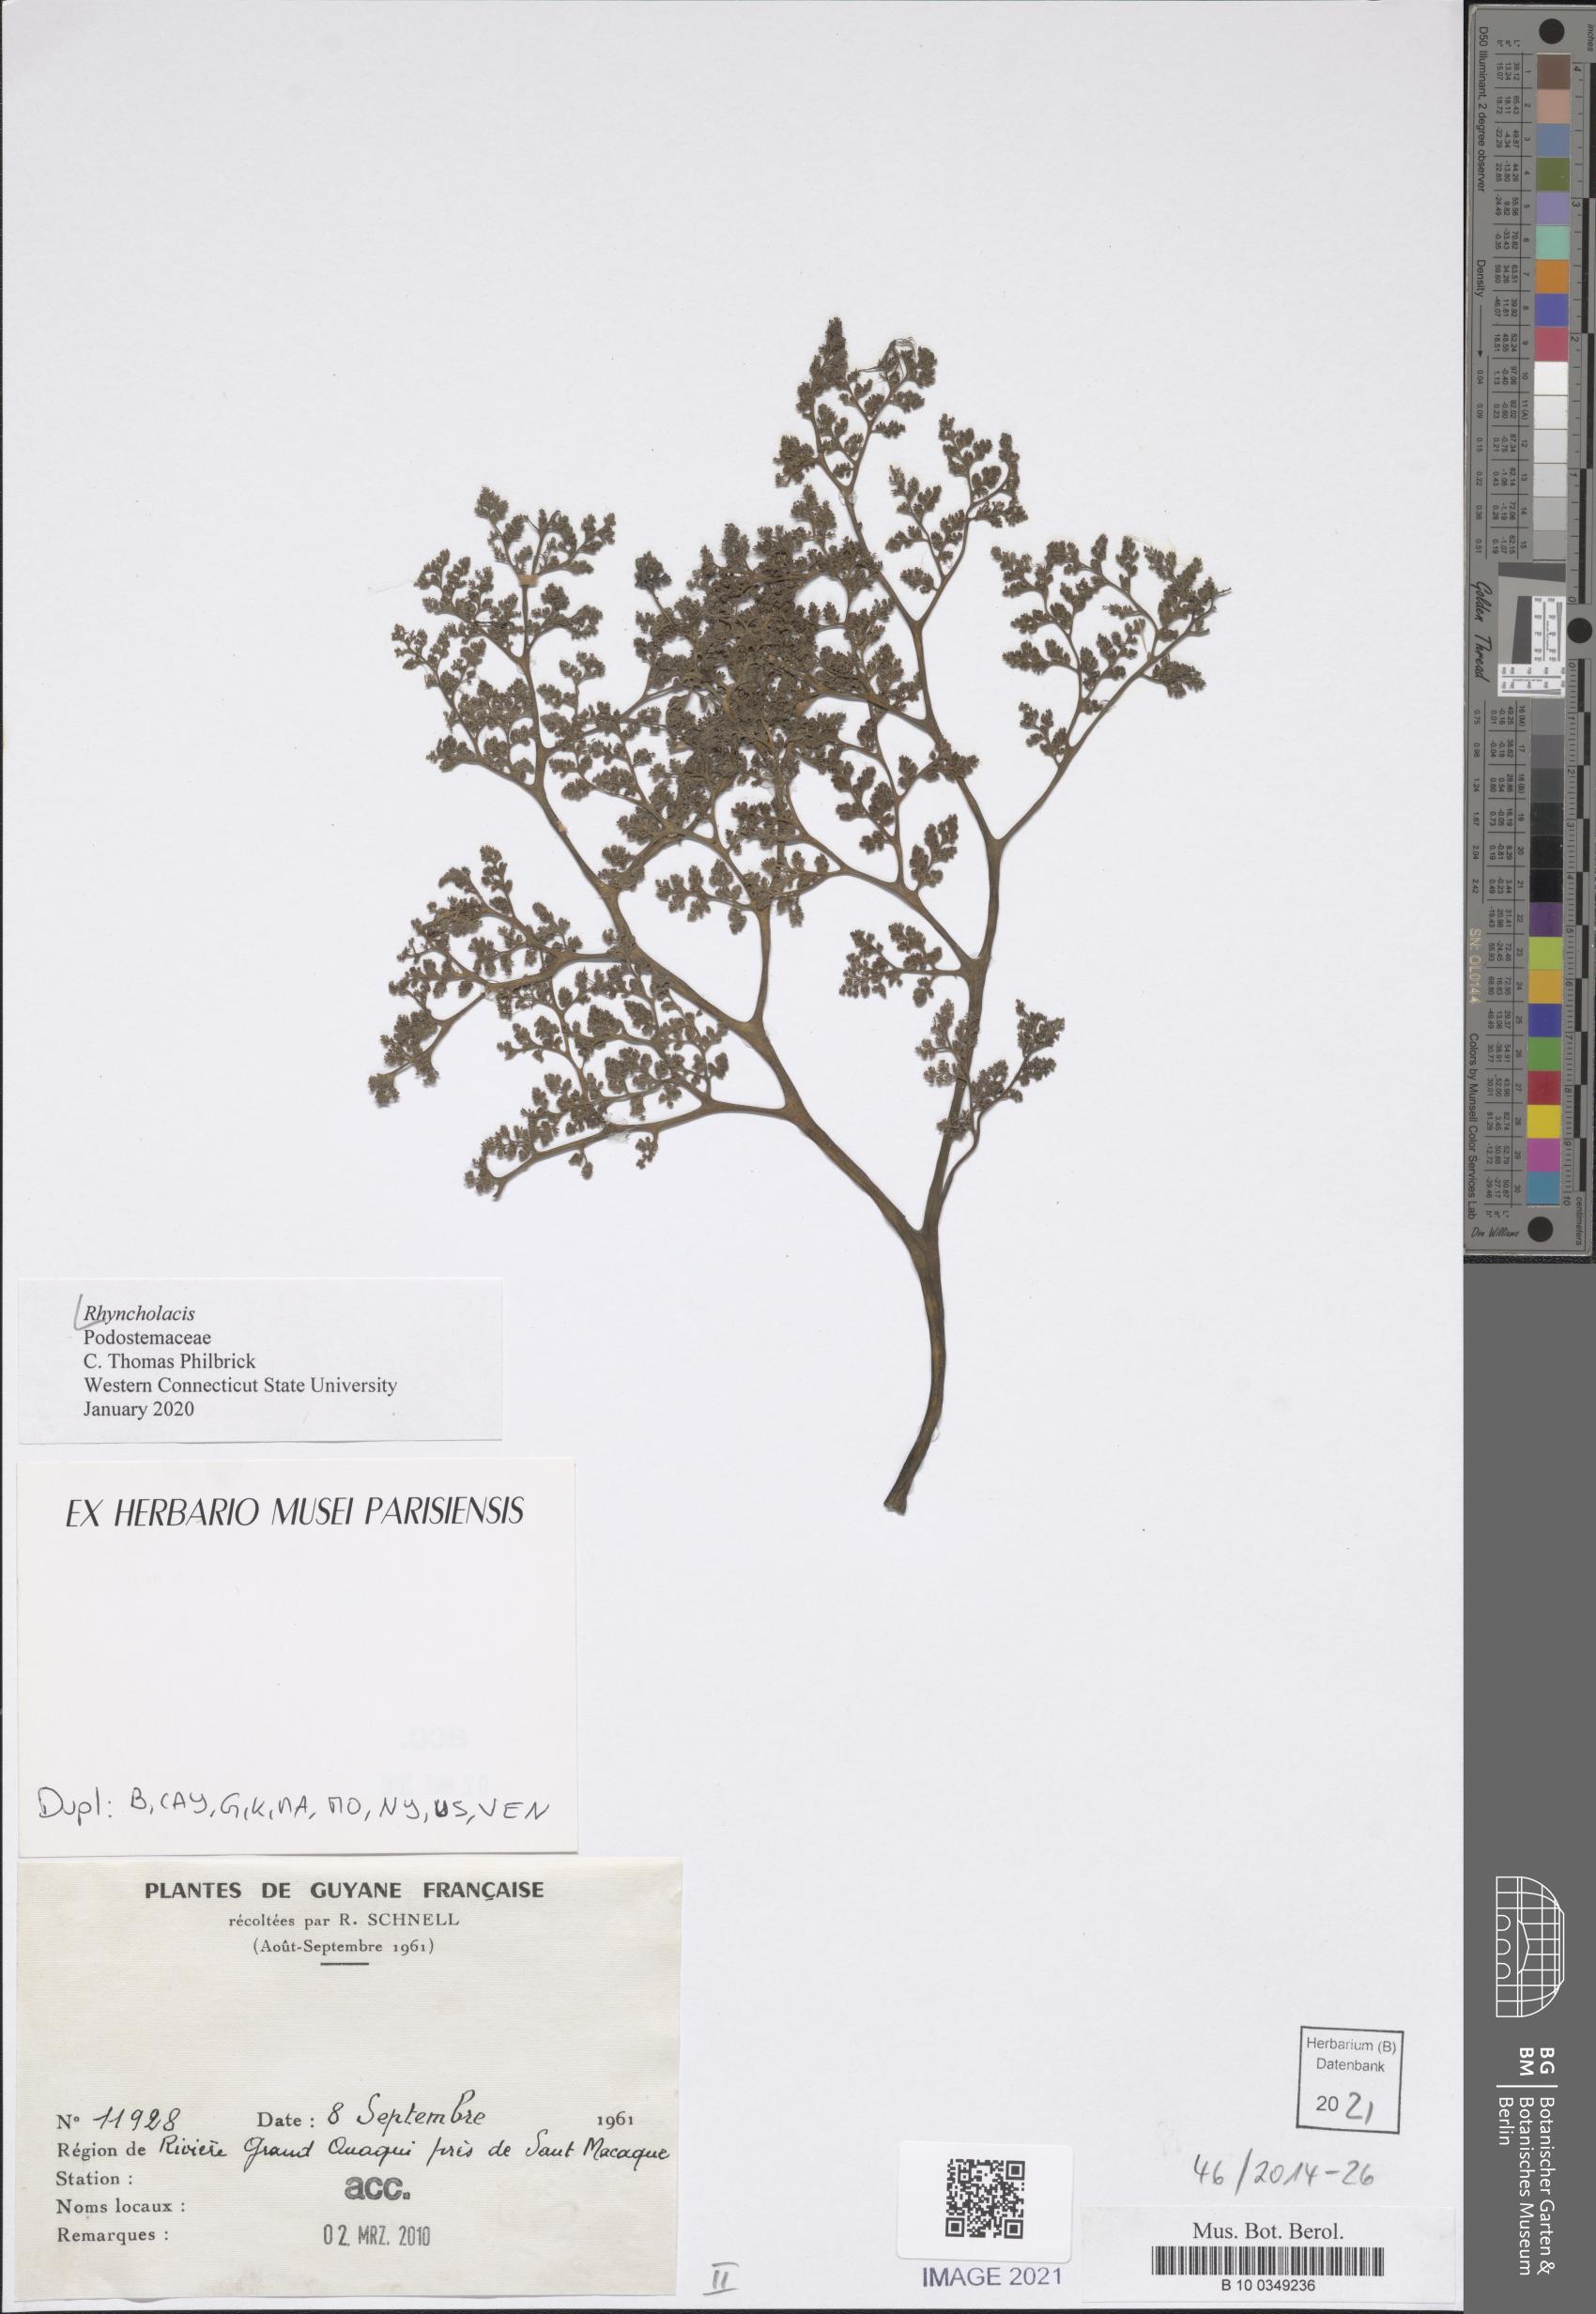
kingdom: Plantae
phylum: Tracheophyta
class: Magnoliopsida
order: Malpighiales
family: Podostemaceae
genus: Rhyncholacis
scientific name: Rhyncholacis
